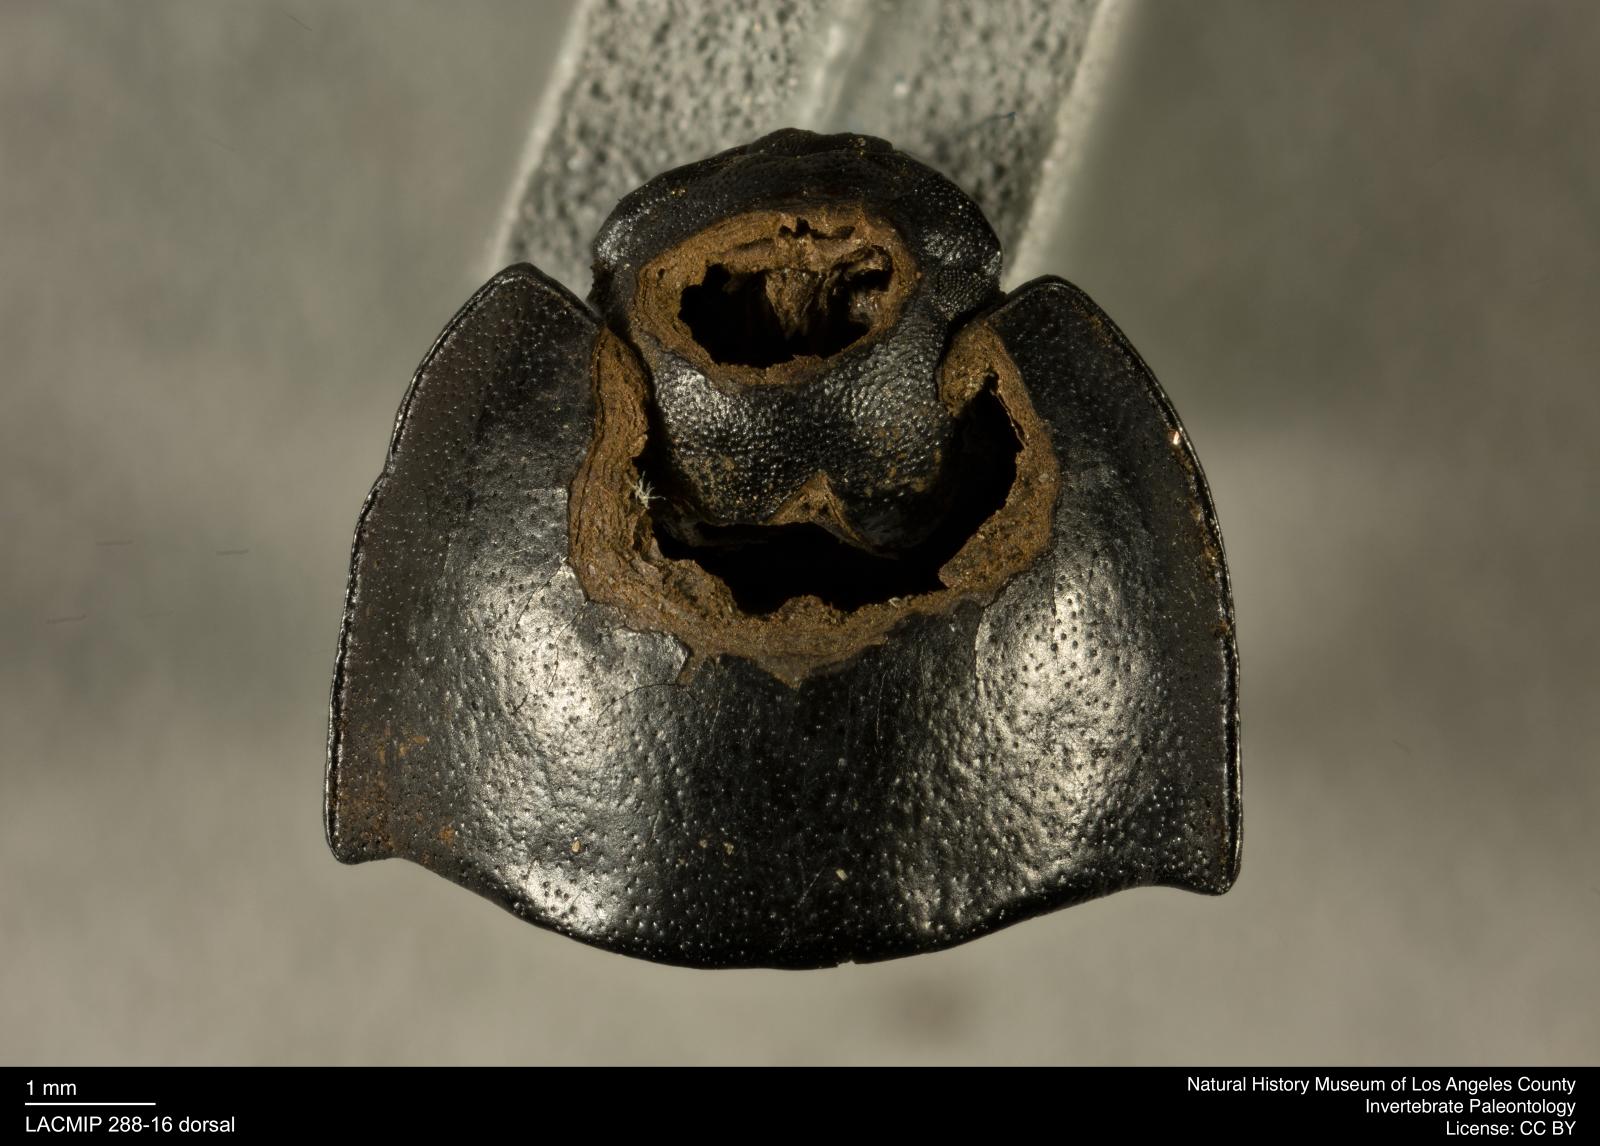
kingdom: Animalia
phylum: Arthropoda
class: Insecta
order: Coleoptera
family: Tenebrionidae
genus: Coniontis
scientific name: Coniontis abdominalis
